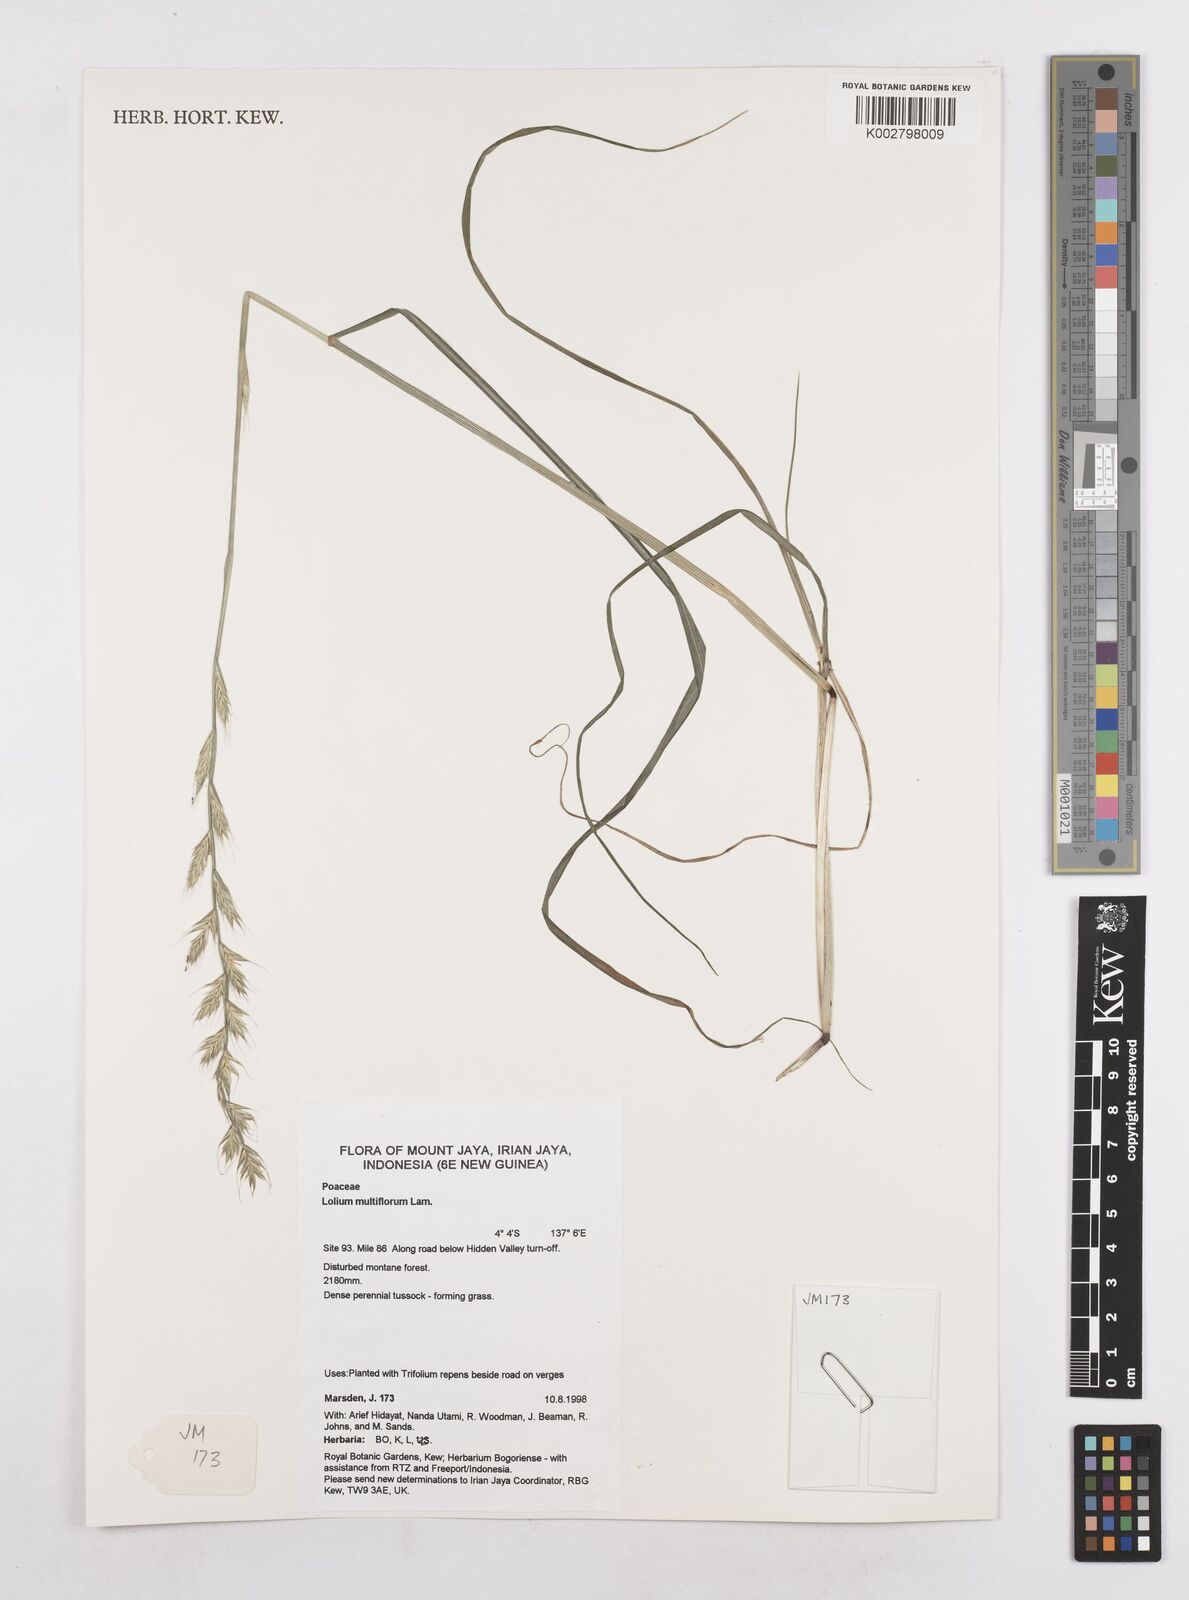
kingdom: Plantae
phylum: Tracheophyta
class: Liliopsida
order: Poales
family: Poaceae
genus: Lolium
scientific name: Lolium multiflorum
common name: Annual ryegrass
